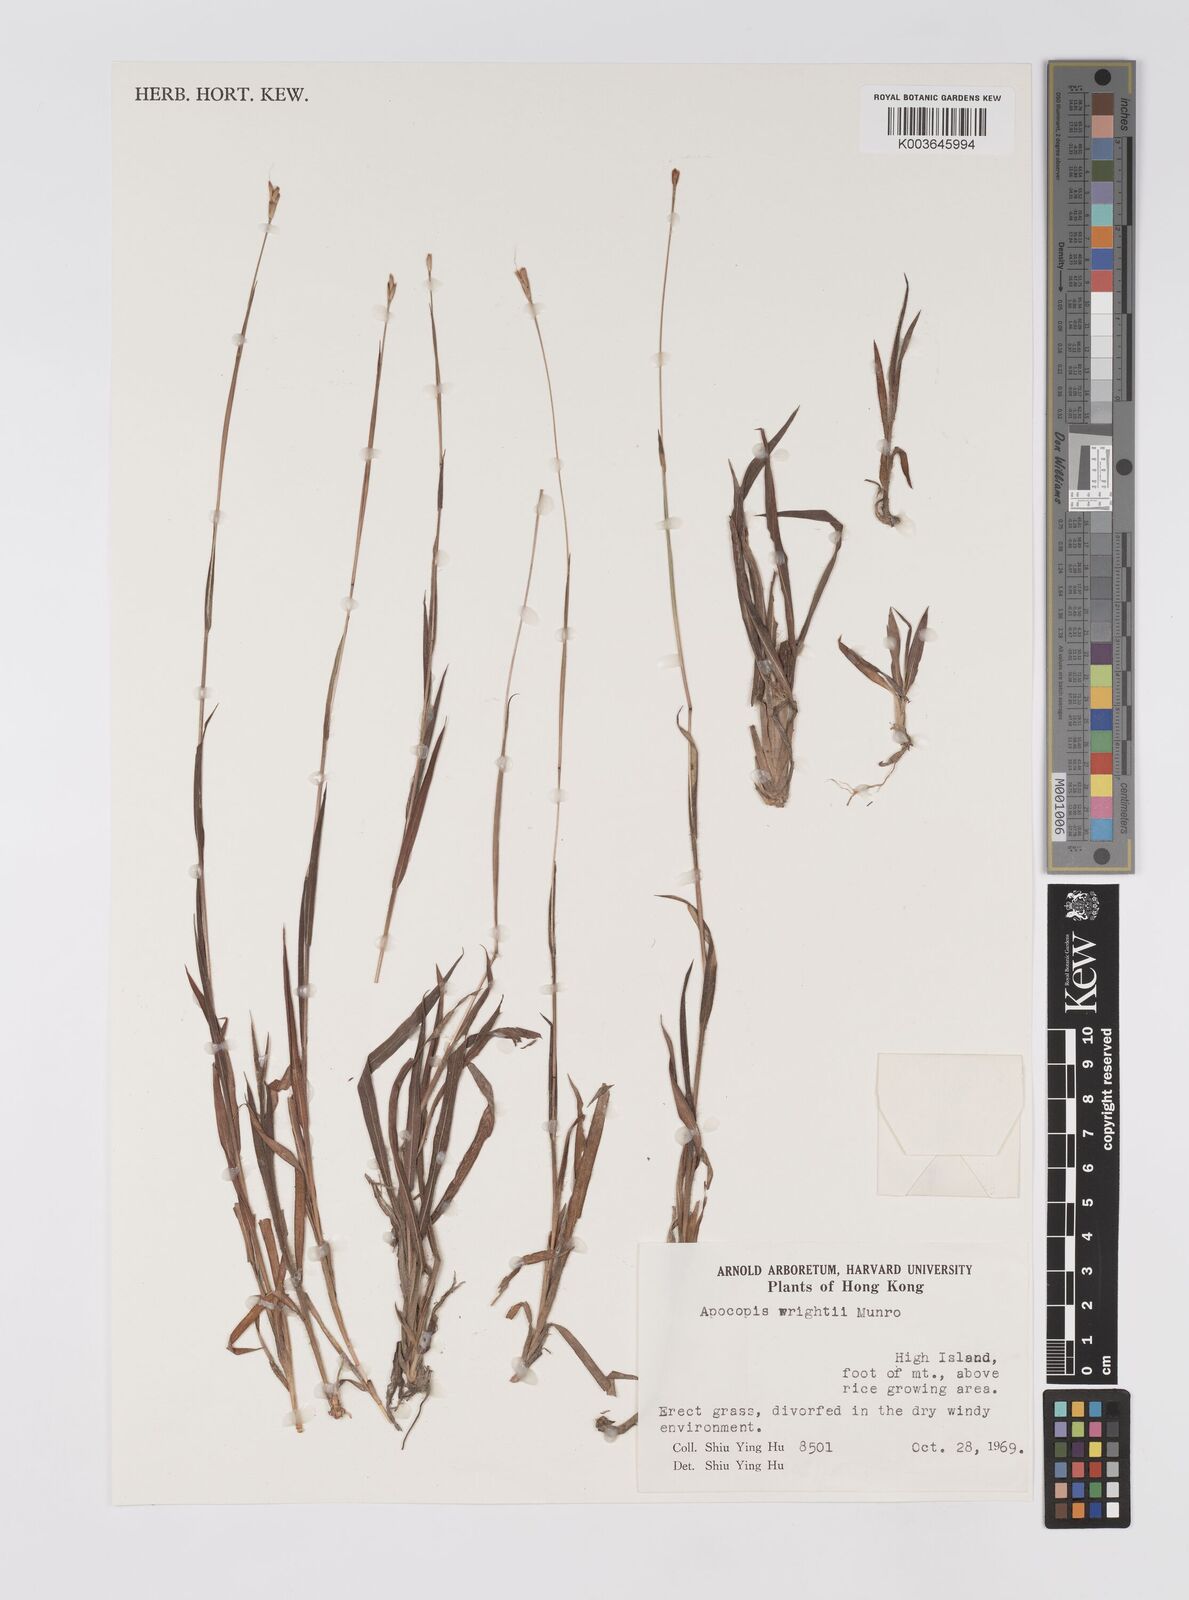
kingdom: Plantae
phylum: Tracheophyta
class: Liliopsida
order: Poales
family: Poaceae
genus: Apocopis
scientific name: Apocopis wrightii
